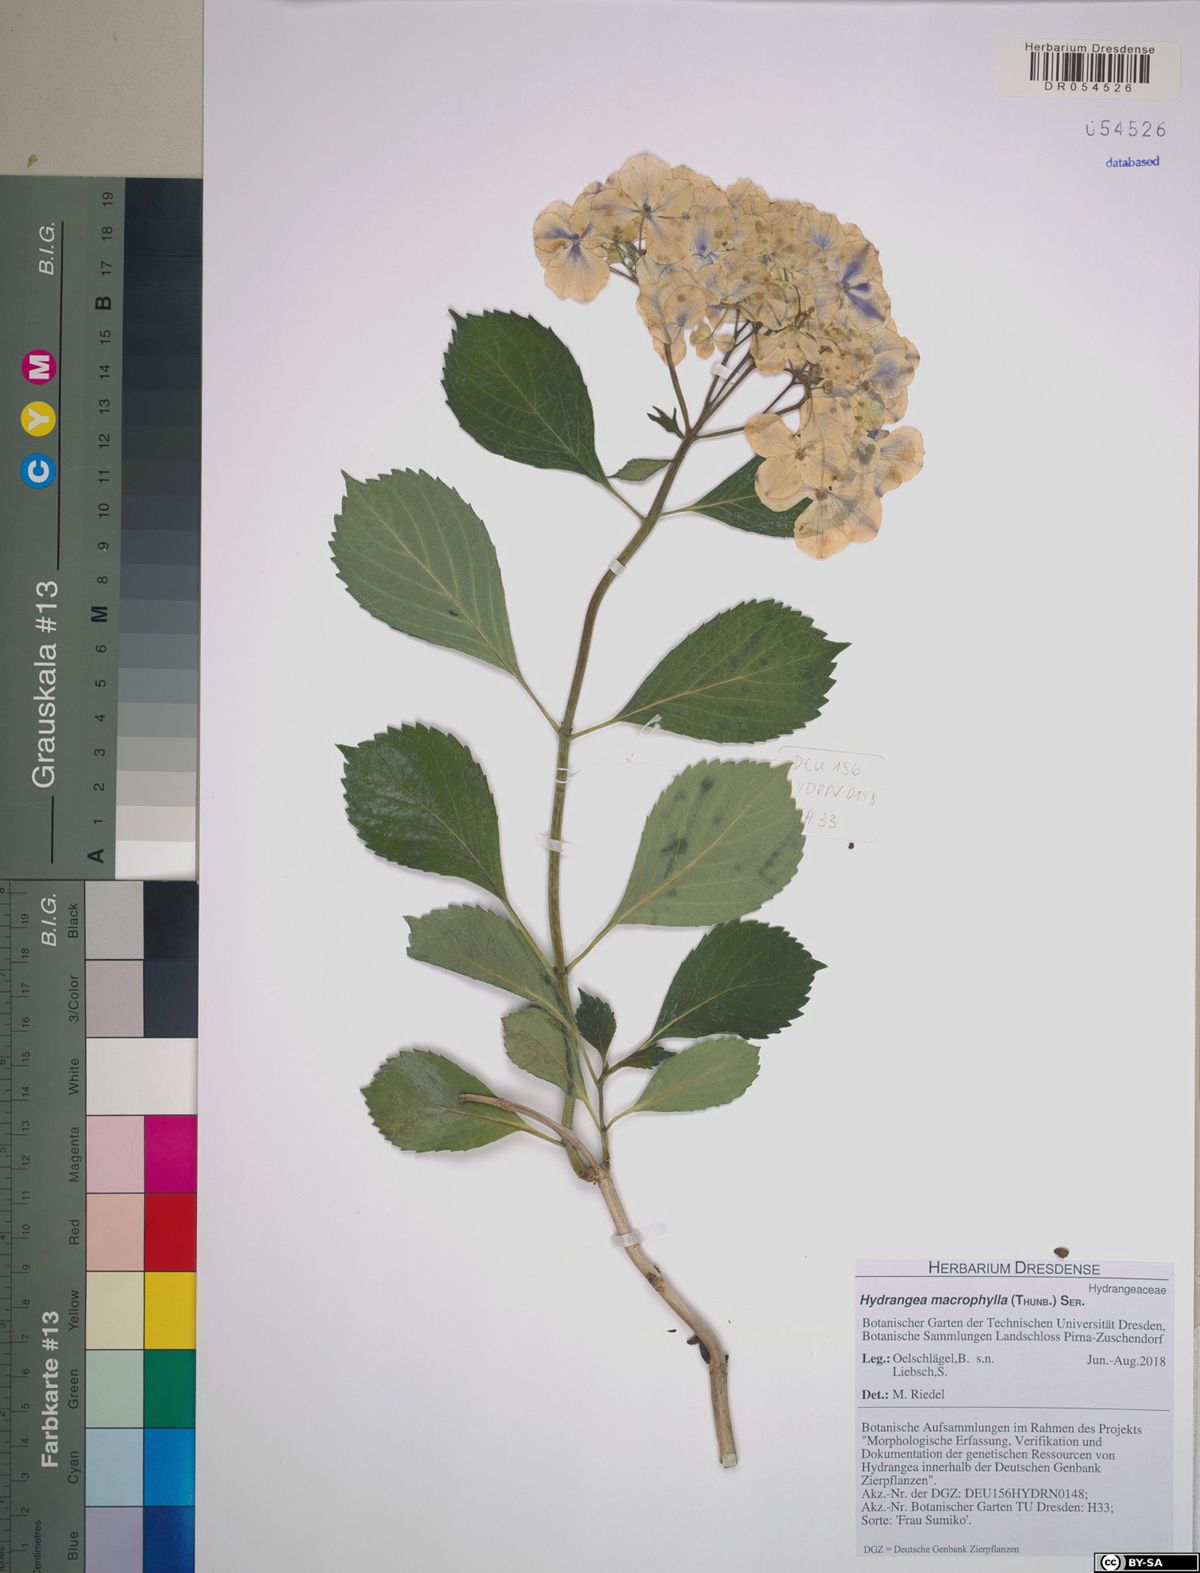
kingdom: Plantae
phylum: Tracheophyta
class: Magnoliopsida
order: Cornales
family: Hydrangeaceae
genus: Hydrangea
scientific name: Hydrangea macrophylla
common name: Hydrangea
